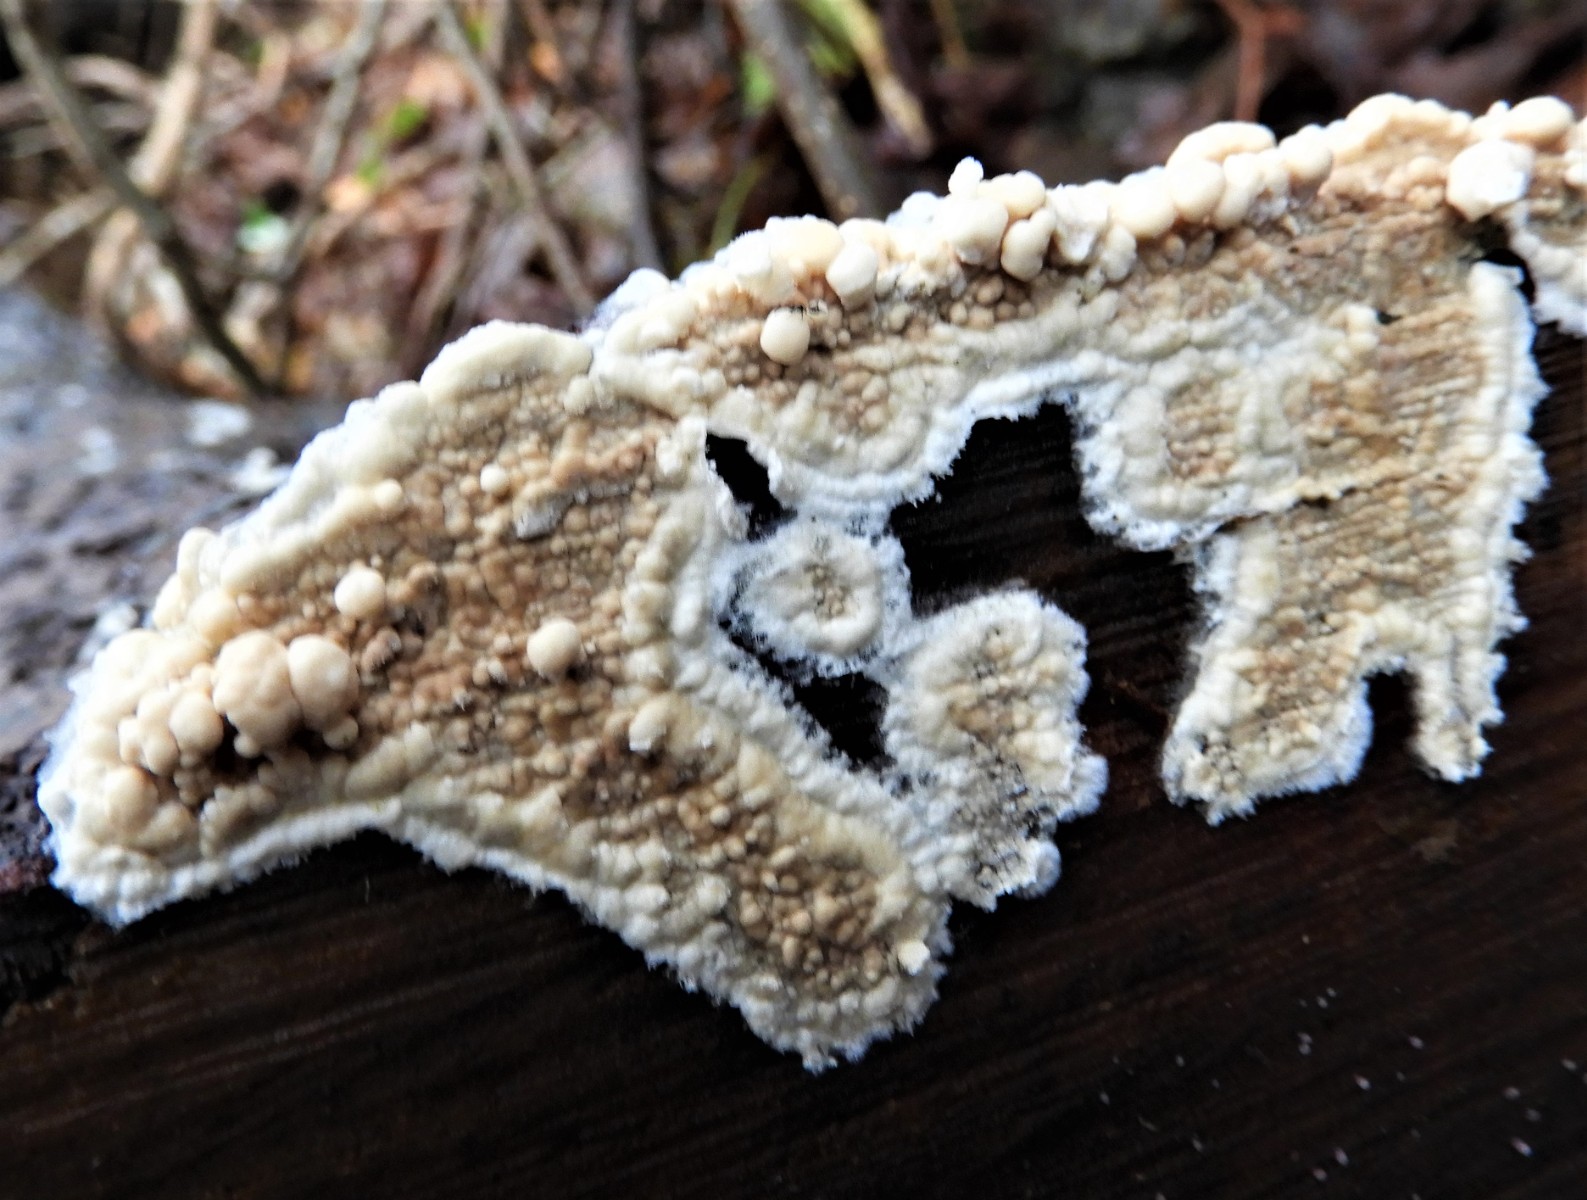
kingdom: Fungi
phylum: Basidiomycota
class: Agaricomycetes
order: Agaricales
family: Physalacriaceae
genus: Cylindrobasidium
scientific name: Cylindrobasidium evolvens
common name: sprækkehinde
